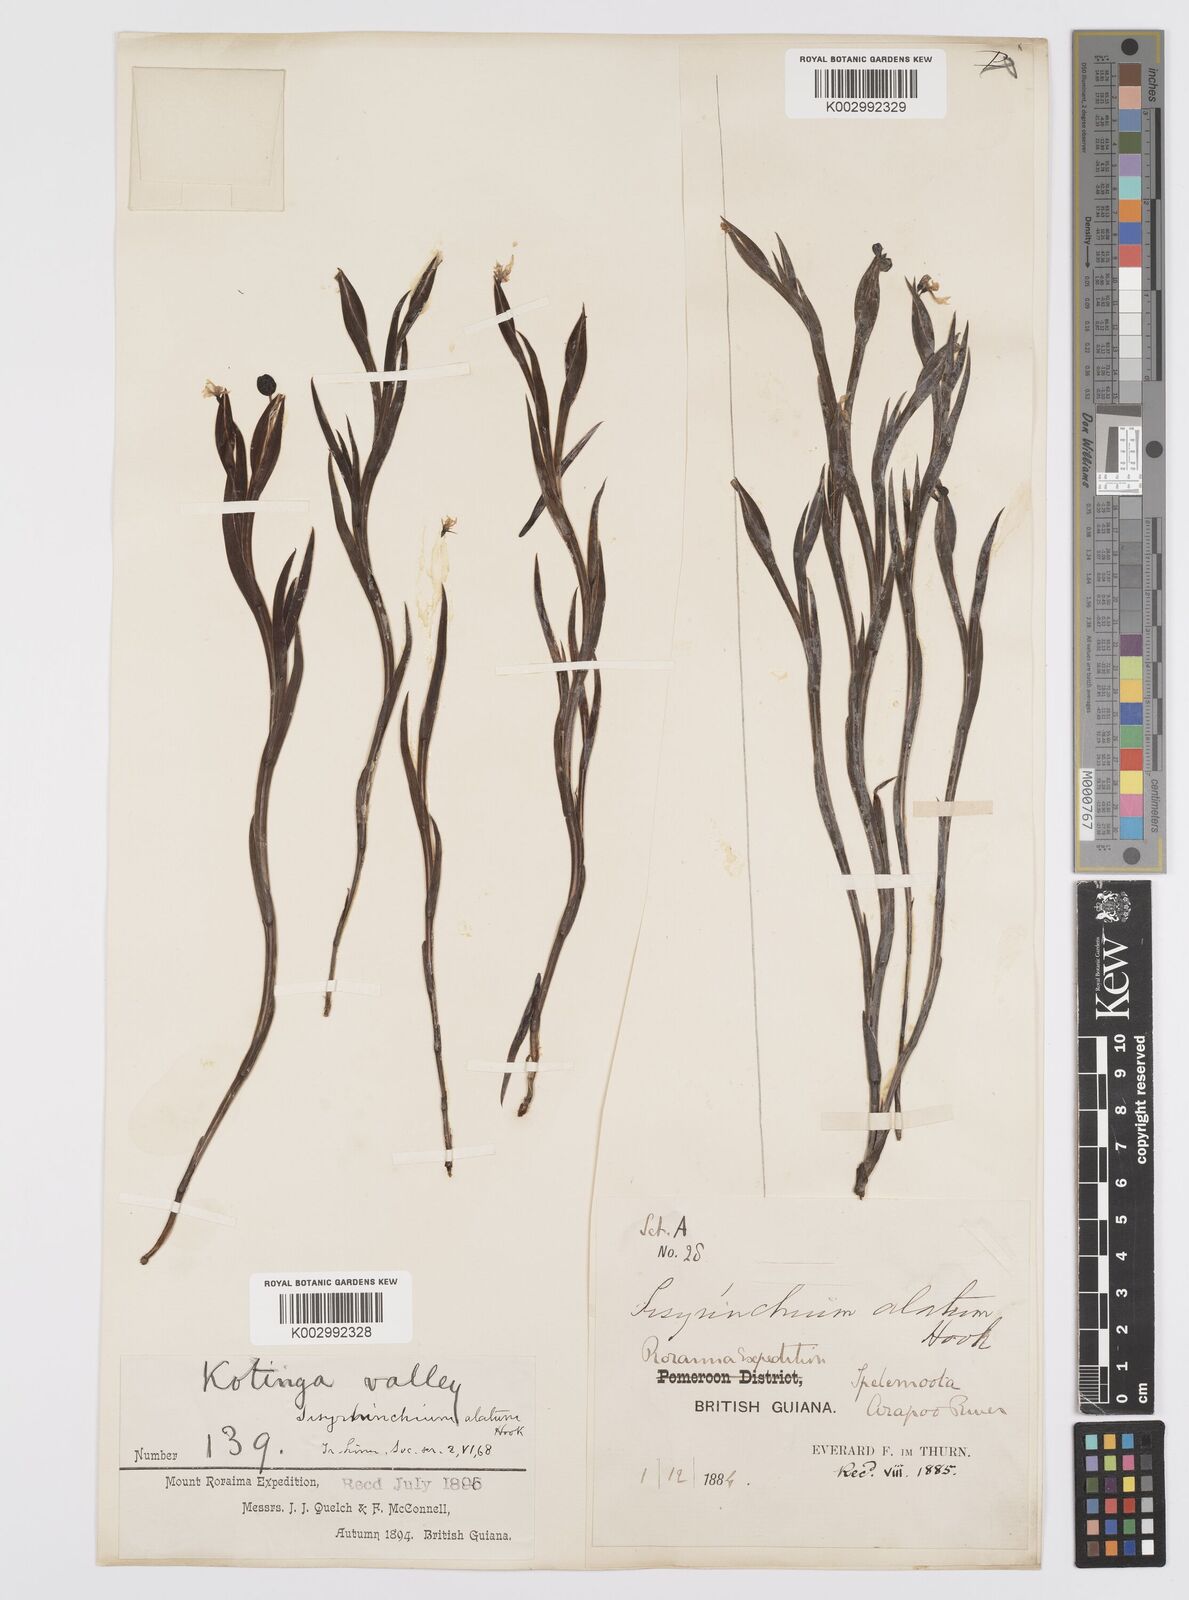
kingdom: Plantae
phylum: Tracheophyta
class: Liliopsida
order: Asparagales
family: Iridaceae
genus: Sisyrinchium
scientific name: Sisyrinchium vaginatum
